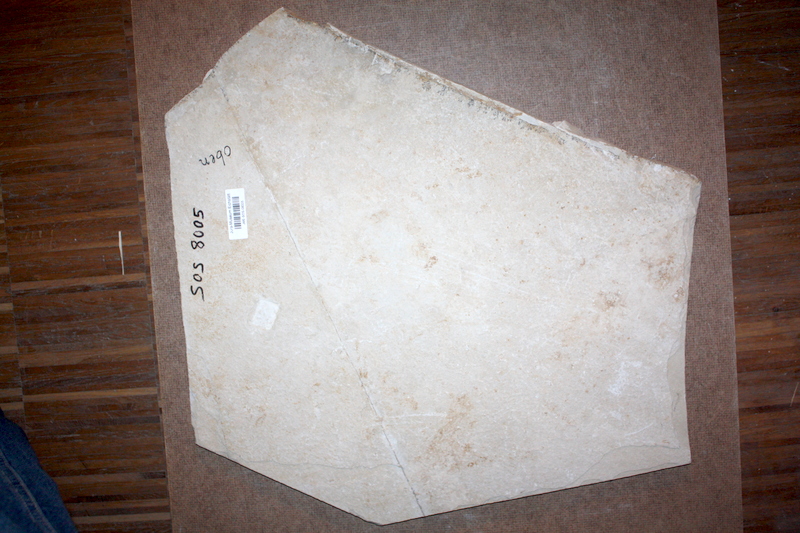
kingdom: Animalia
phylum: Chordata
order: Salmoniformes
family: Orthogonikleithridae
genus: Leptolepides
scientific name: Leptolepides sprattiformis
